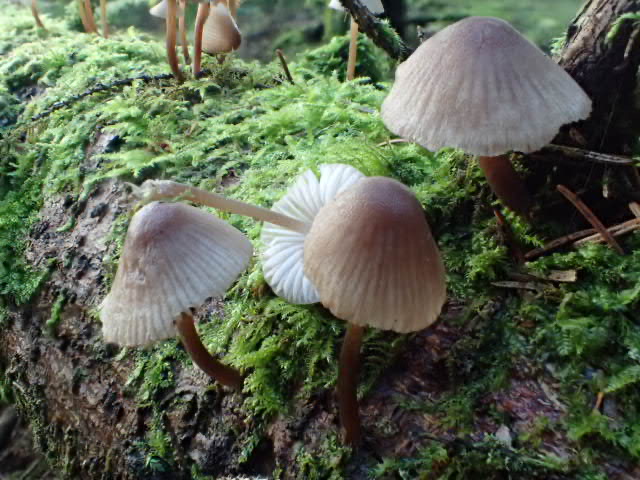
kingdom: Fungi
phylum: Basidiomycota
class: Agaricomycetes
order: Agaricales
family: Mycenaceae
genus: Mycena
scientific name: Mycena
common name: huesvamp
